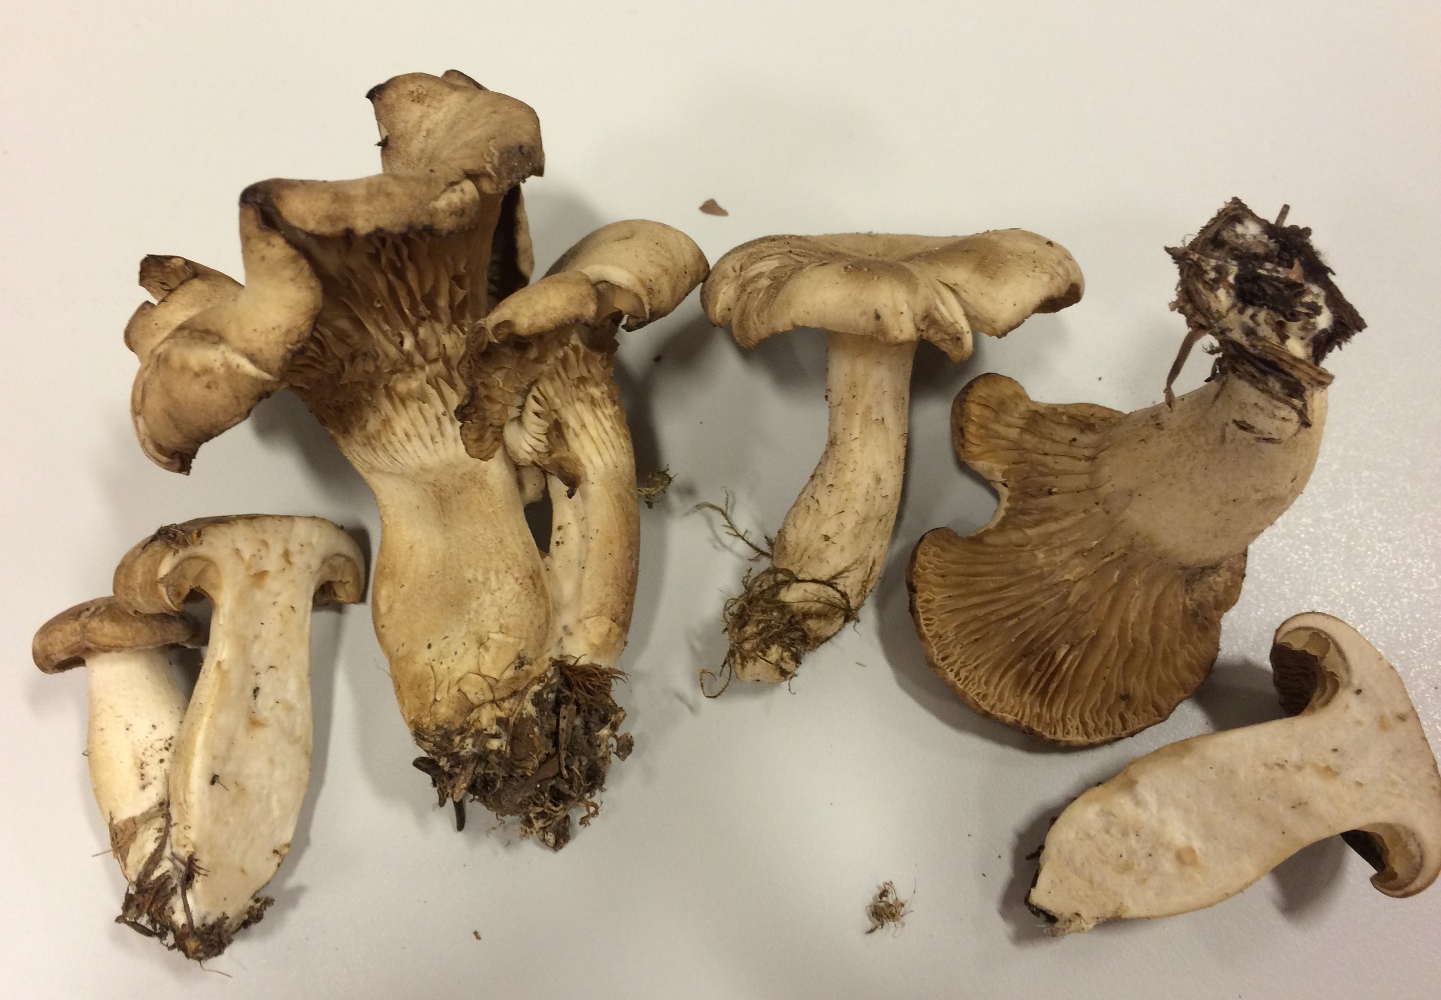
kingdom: Fungi
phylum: Basidiomycota
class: Agaricomycetes
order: Agaricales
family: Tricholomataceae
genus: Clitocybe
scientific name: Clitocybe murinoalba
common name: gråbladet tragthat
